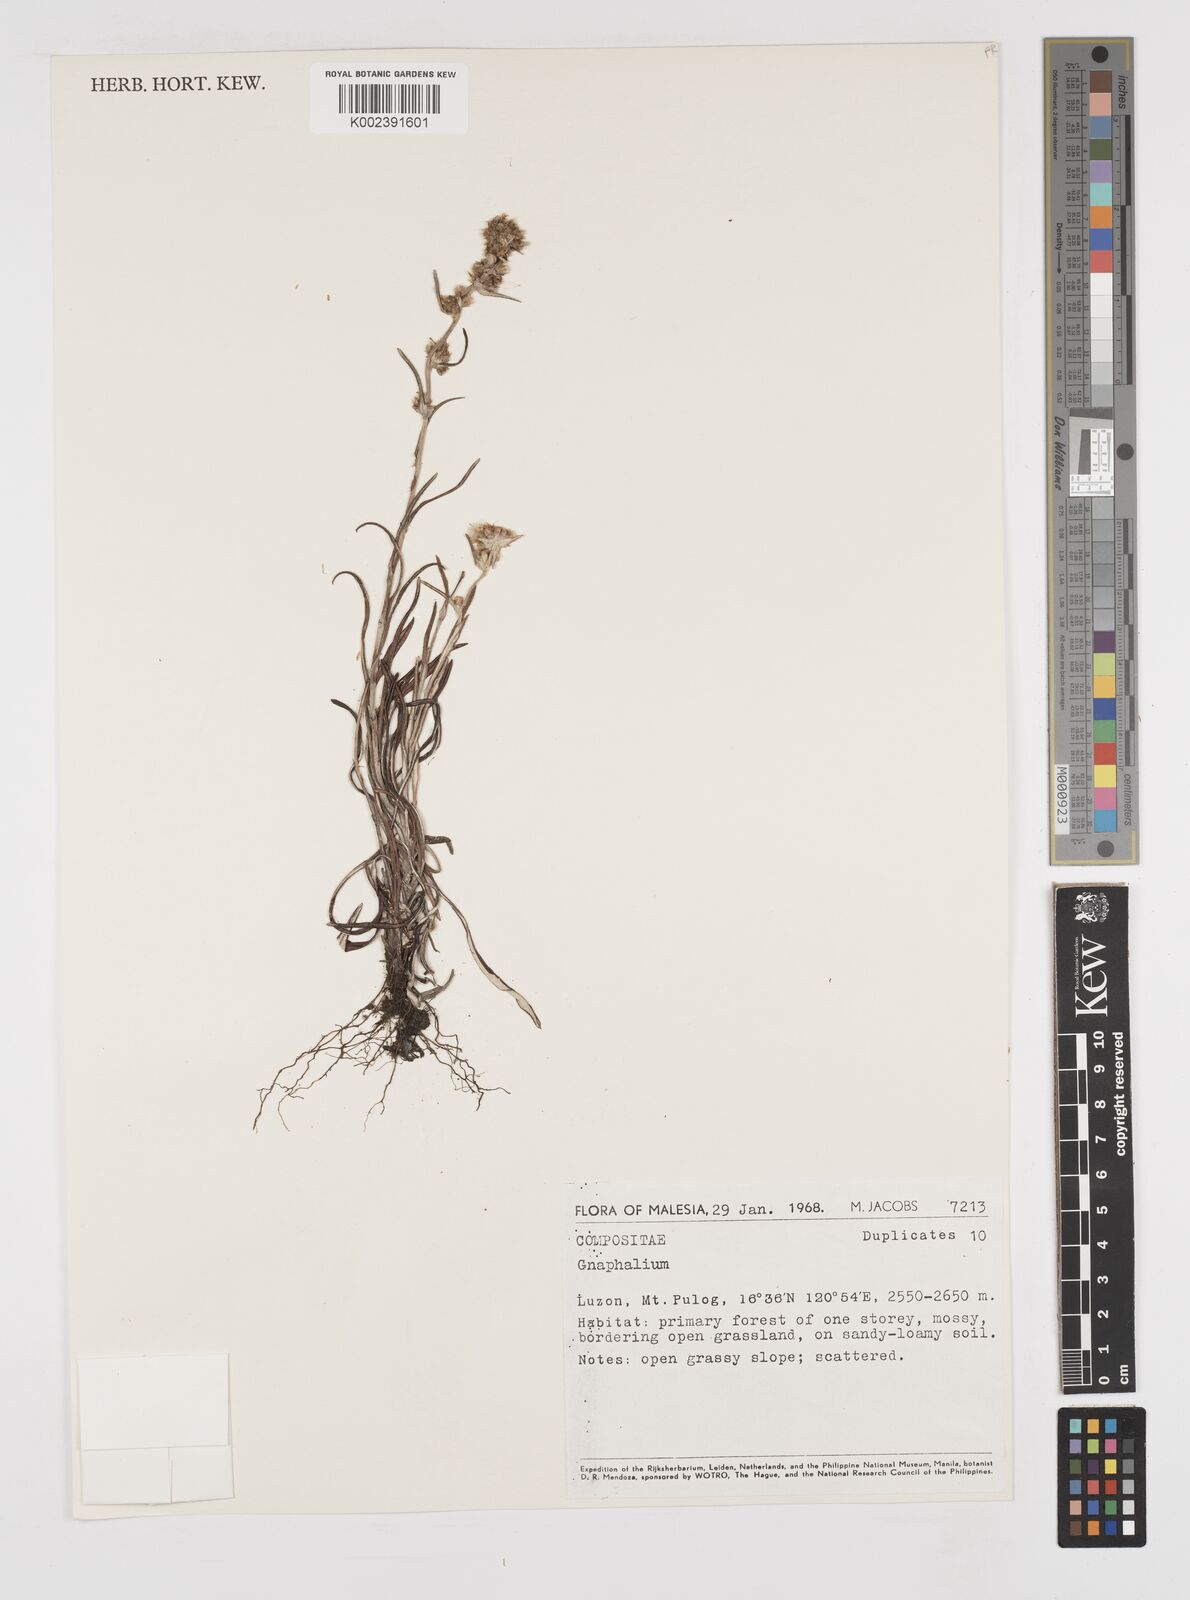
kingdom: Plantae
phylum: Tracheophyta
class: Magnoliopsida
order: Asterales
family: Asteraceae
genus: Gnaphalium
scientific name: Gnaphalium
